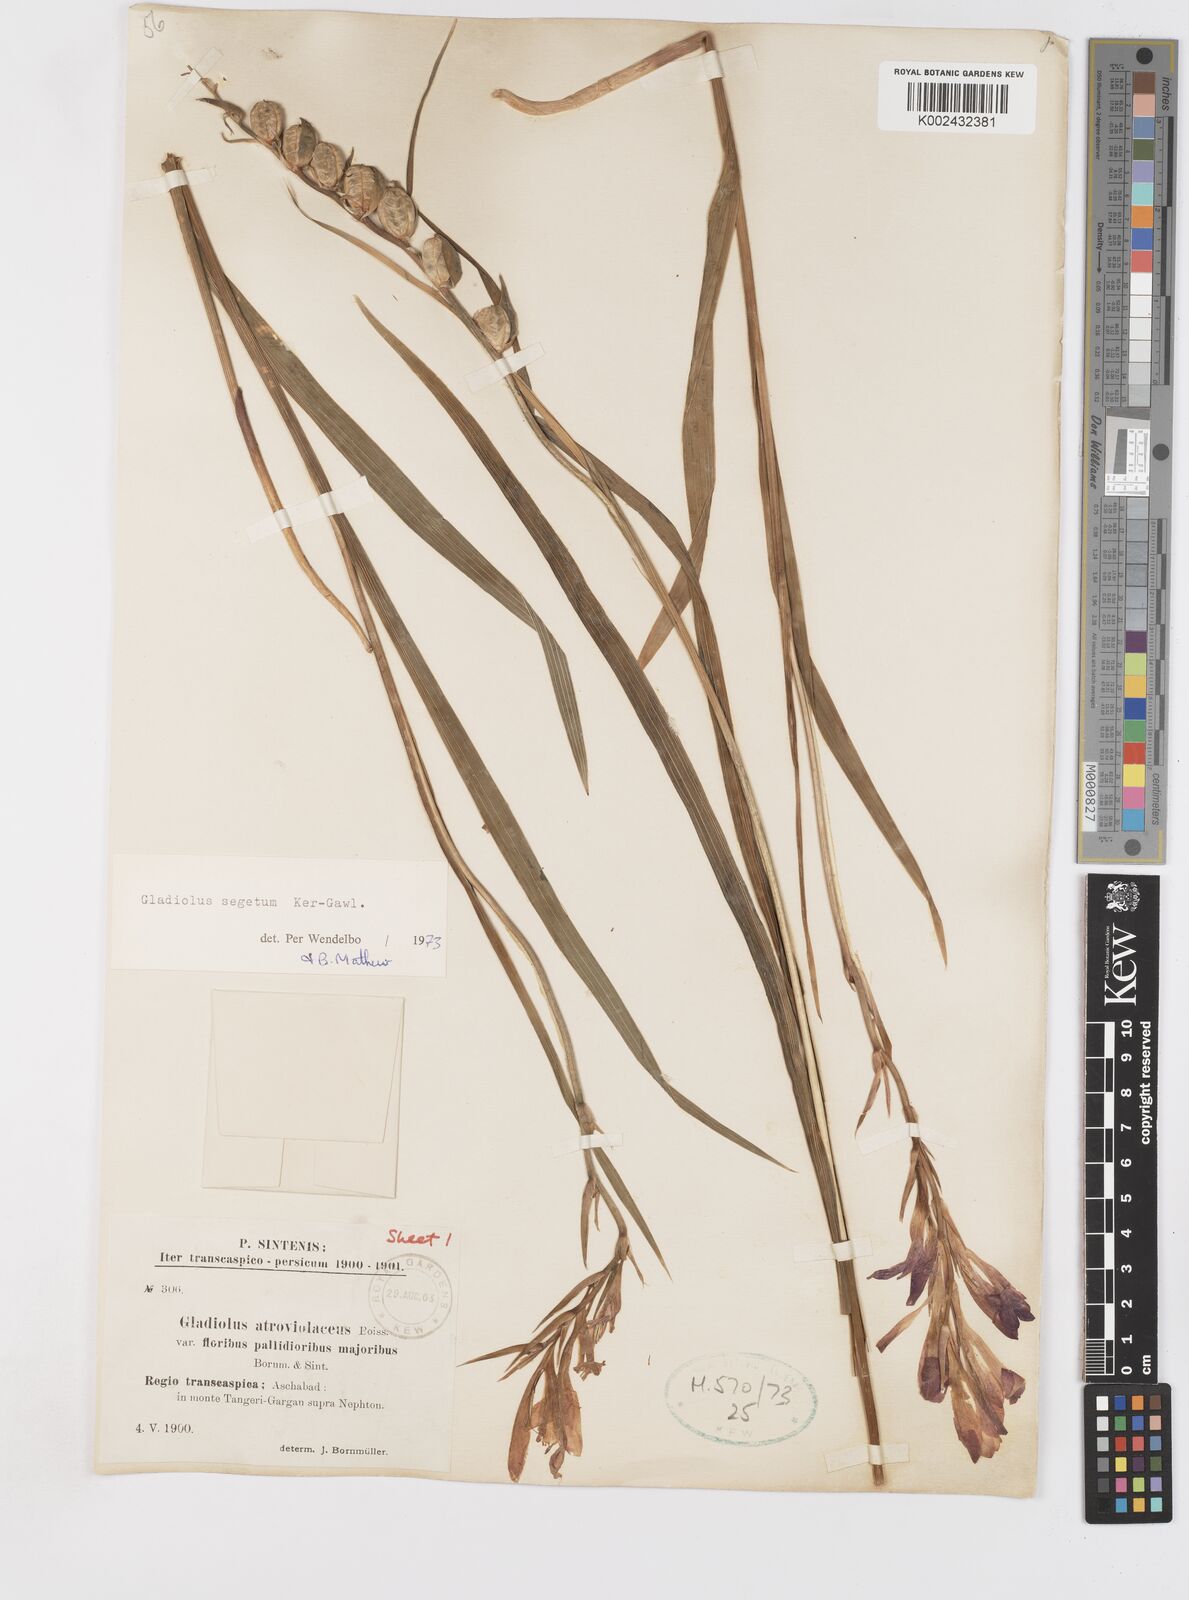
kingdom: Plantae
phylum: Tracheophyta
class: Liliopsida
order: Asparagales
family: Iridaceae
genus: Gladiolus
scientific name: Gladiolus italicus
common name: Field gladiolus
